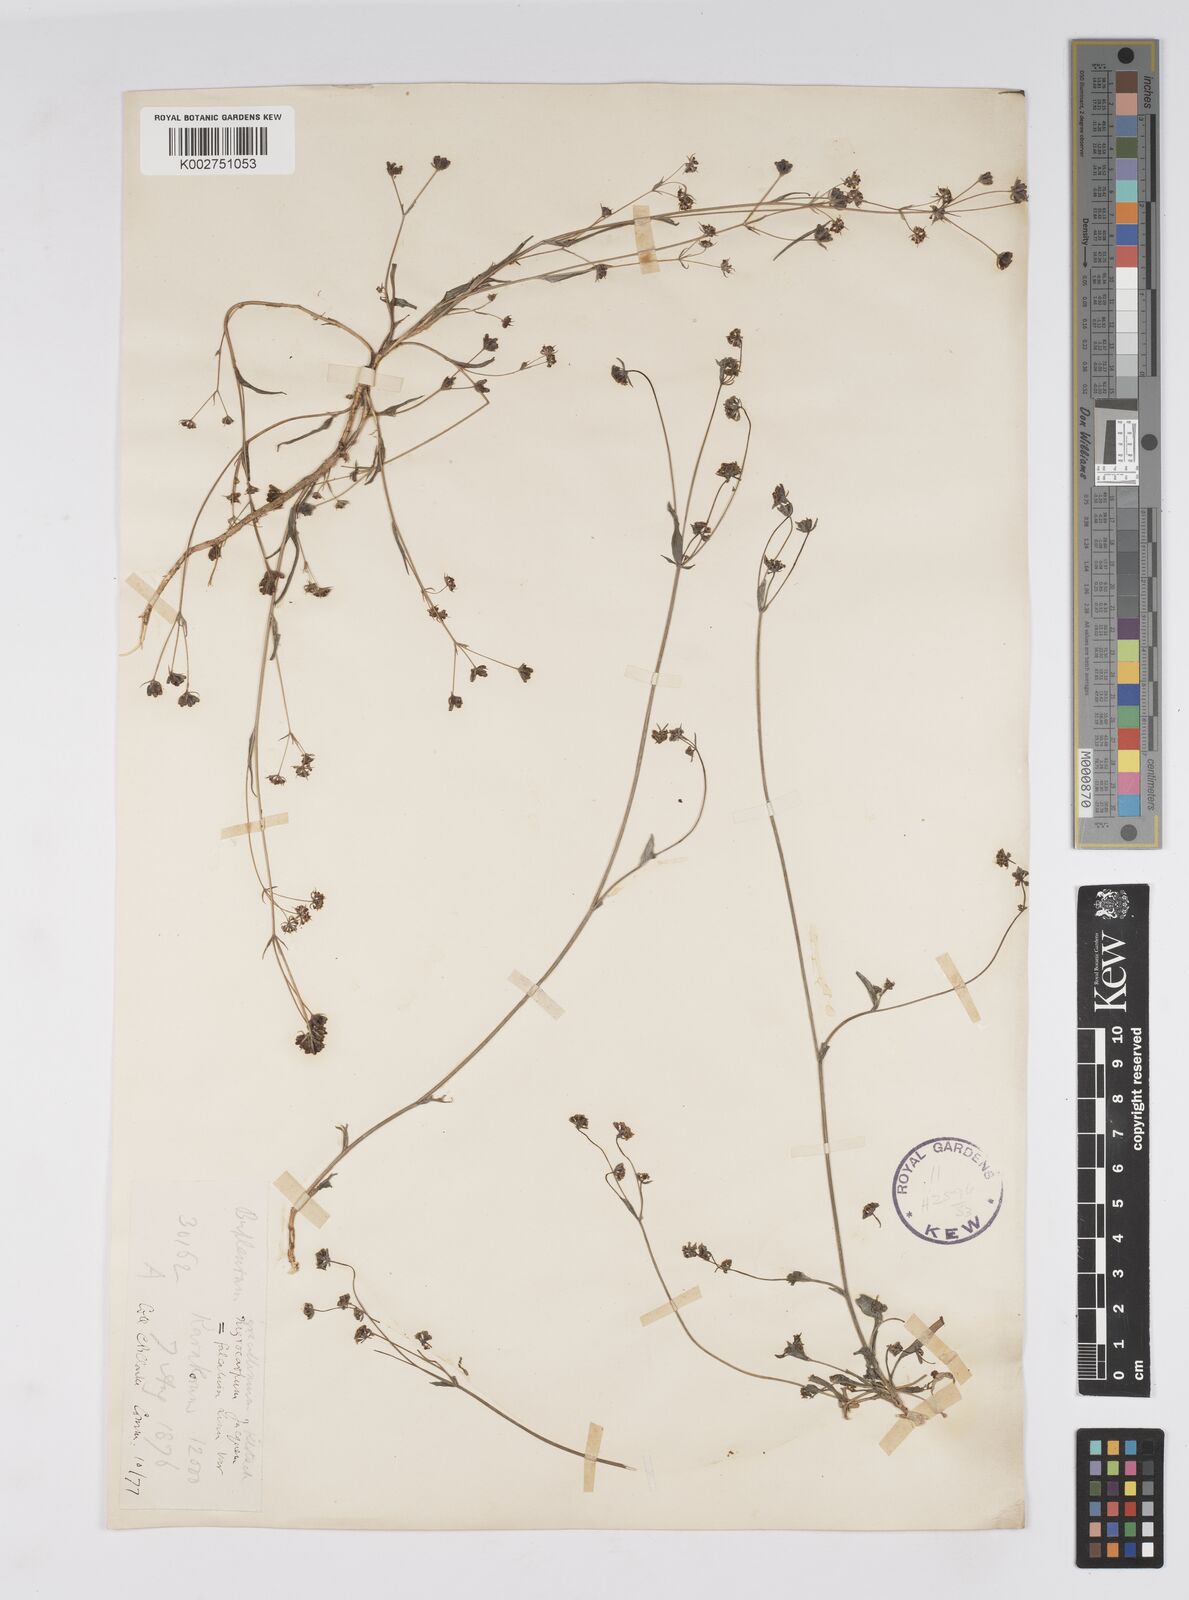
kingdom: Plantae
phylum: Tracheophyta
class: Magnoliopsida
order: Apiales
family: Apiaceae
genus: Bupleurum
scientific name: Bupleurum gracillimum
